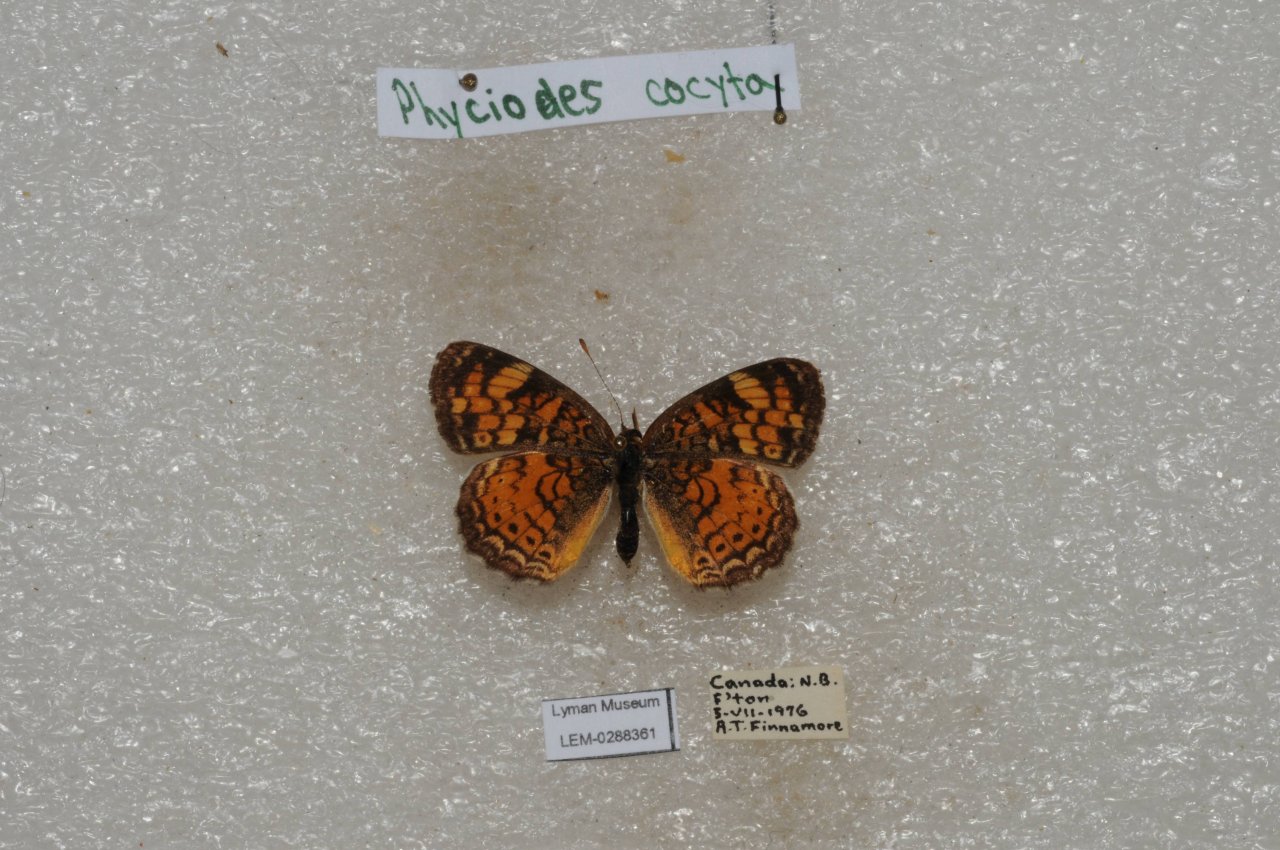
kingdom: Animalia
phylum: Arthropoda
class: Insecta
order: Lepidoptera
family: Nymphalidae
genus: Phyciodes
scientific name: Phyciodes tharos
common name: Northern Crescent
